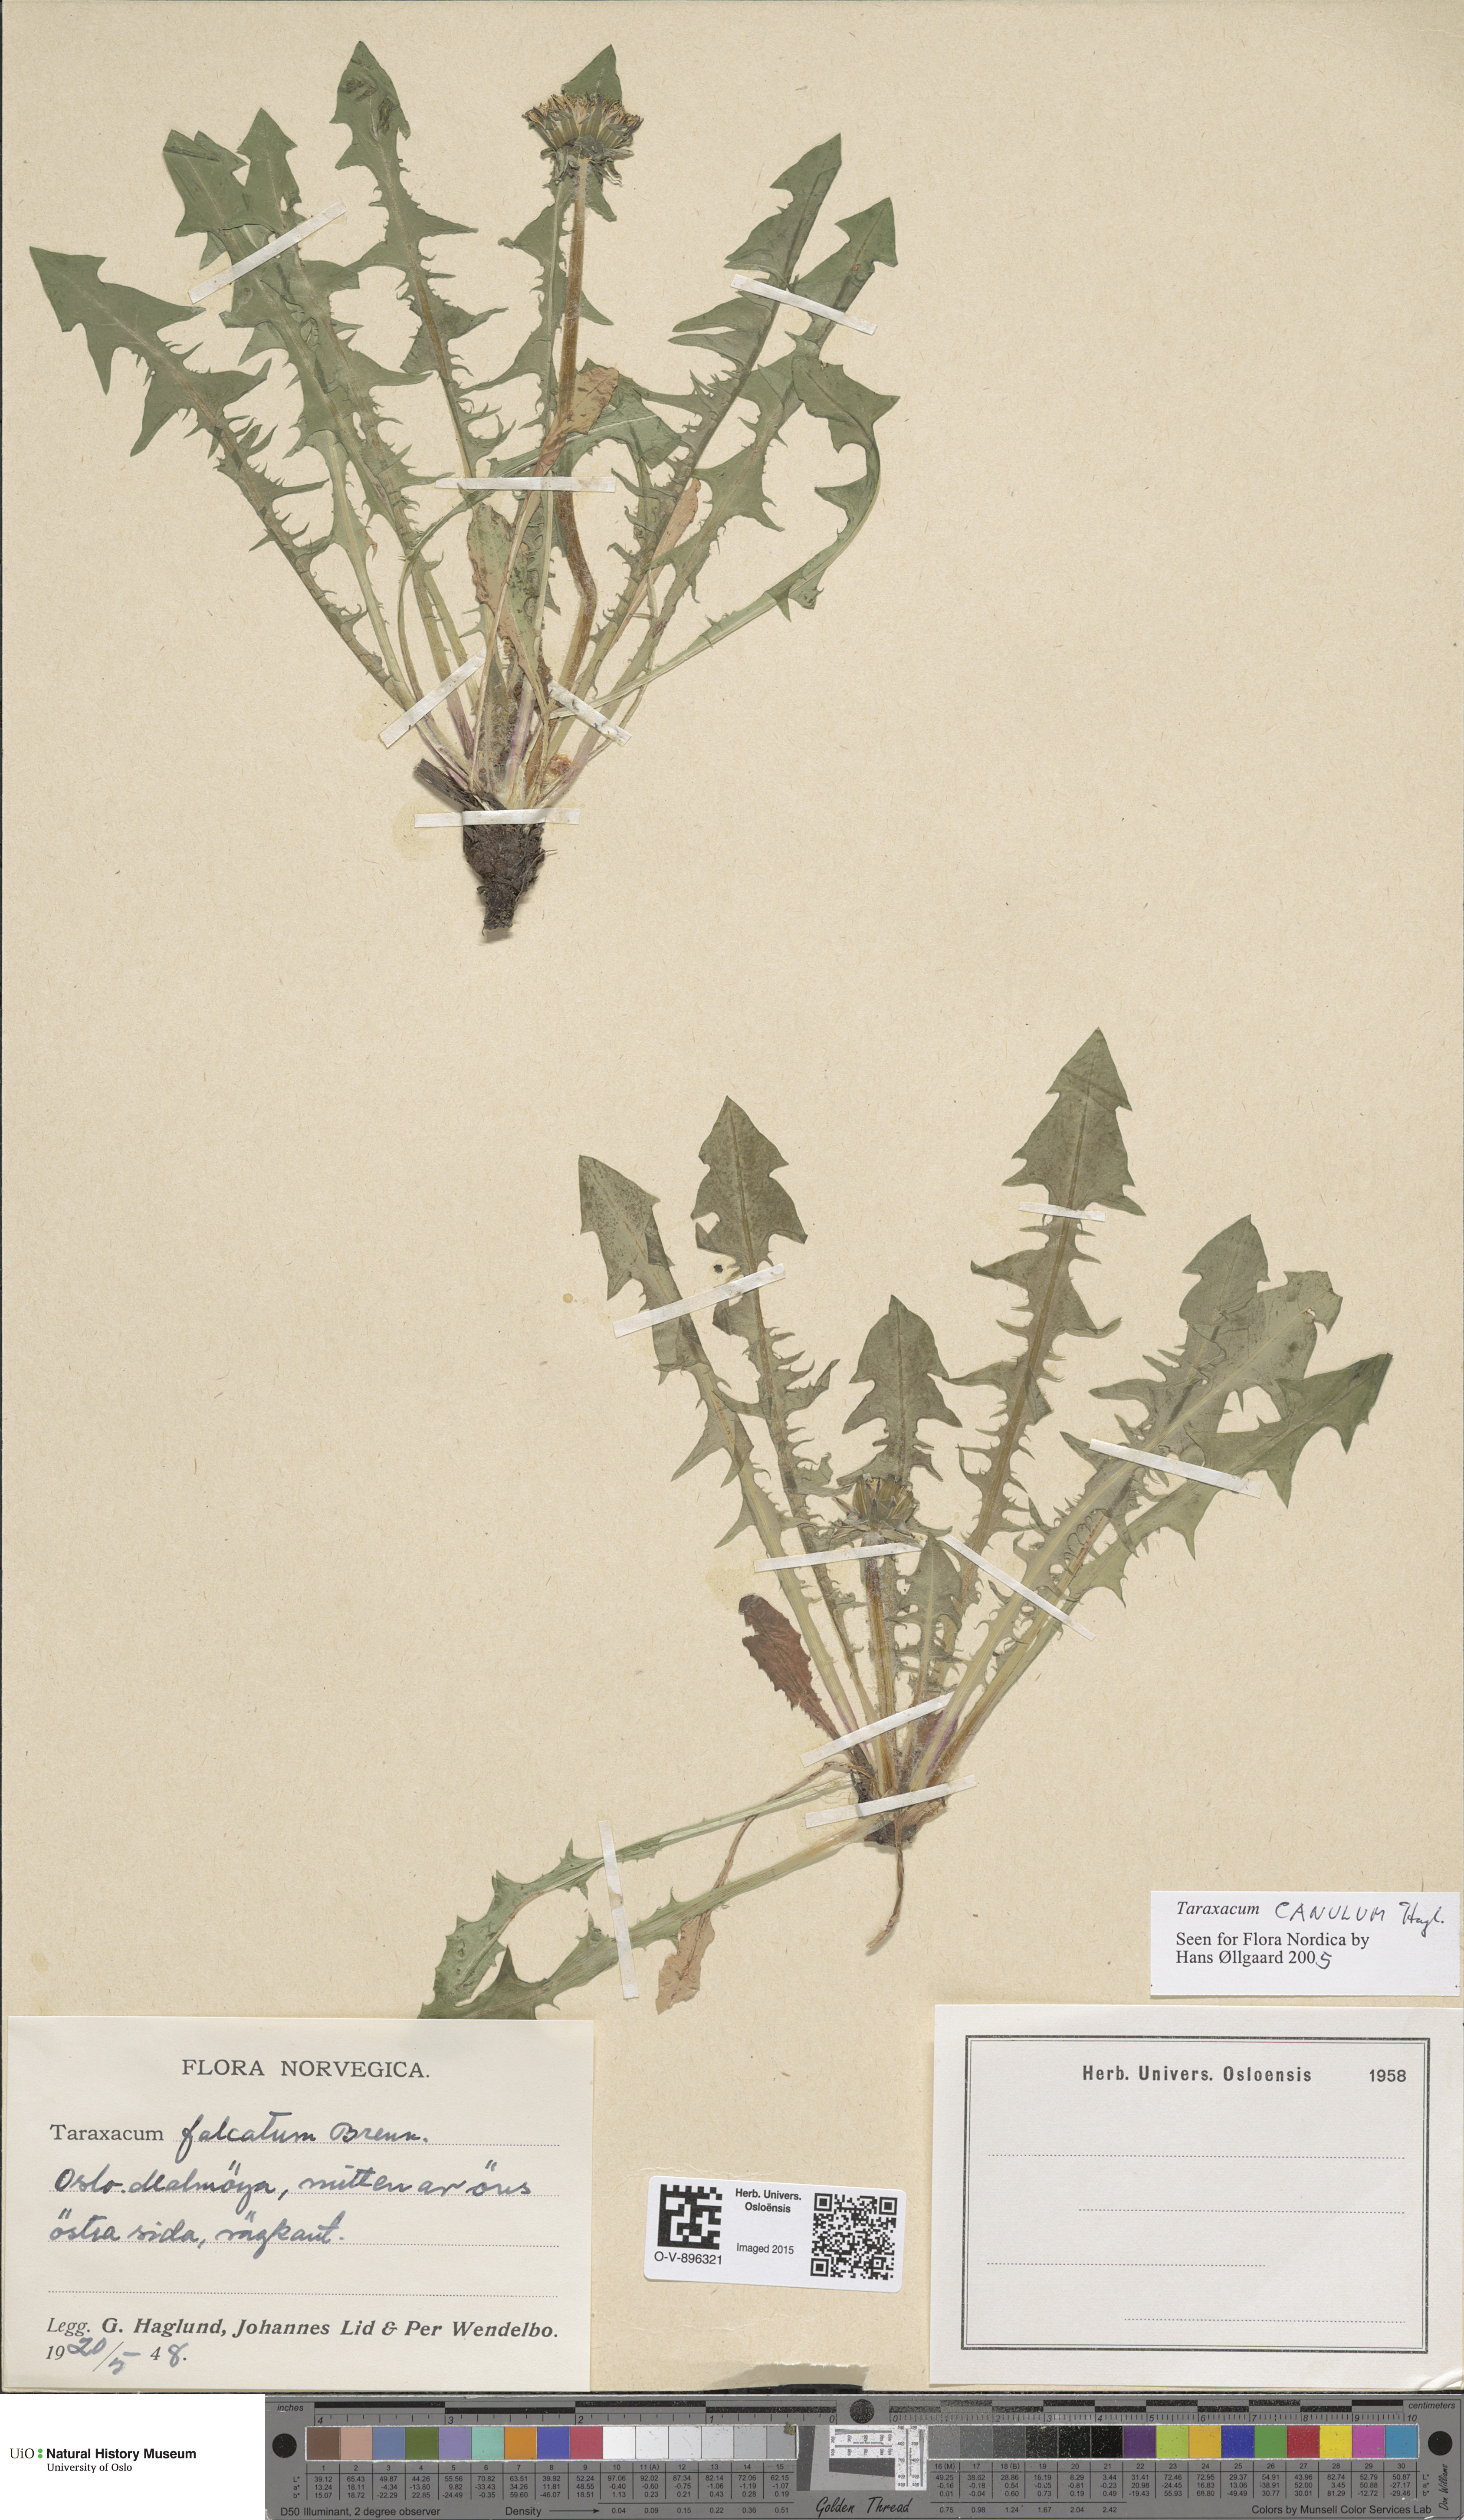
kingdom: Plantae
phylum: Tracheophyta
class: Magnoliopsida
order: Asterales
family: Asteraceae
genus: Taraxacum
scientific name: Taraxacum canulum
